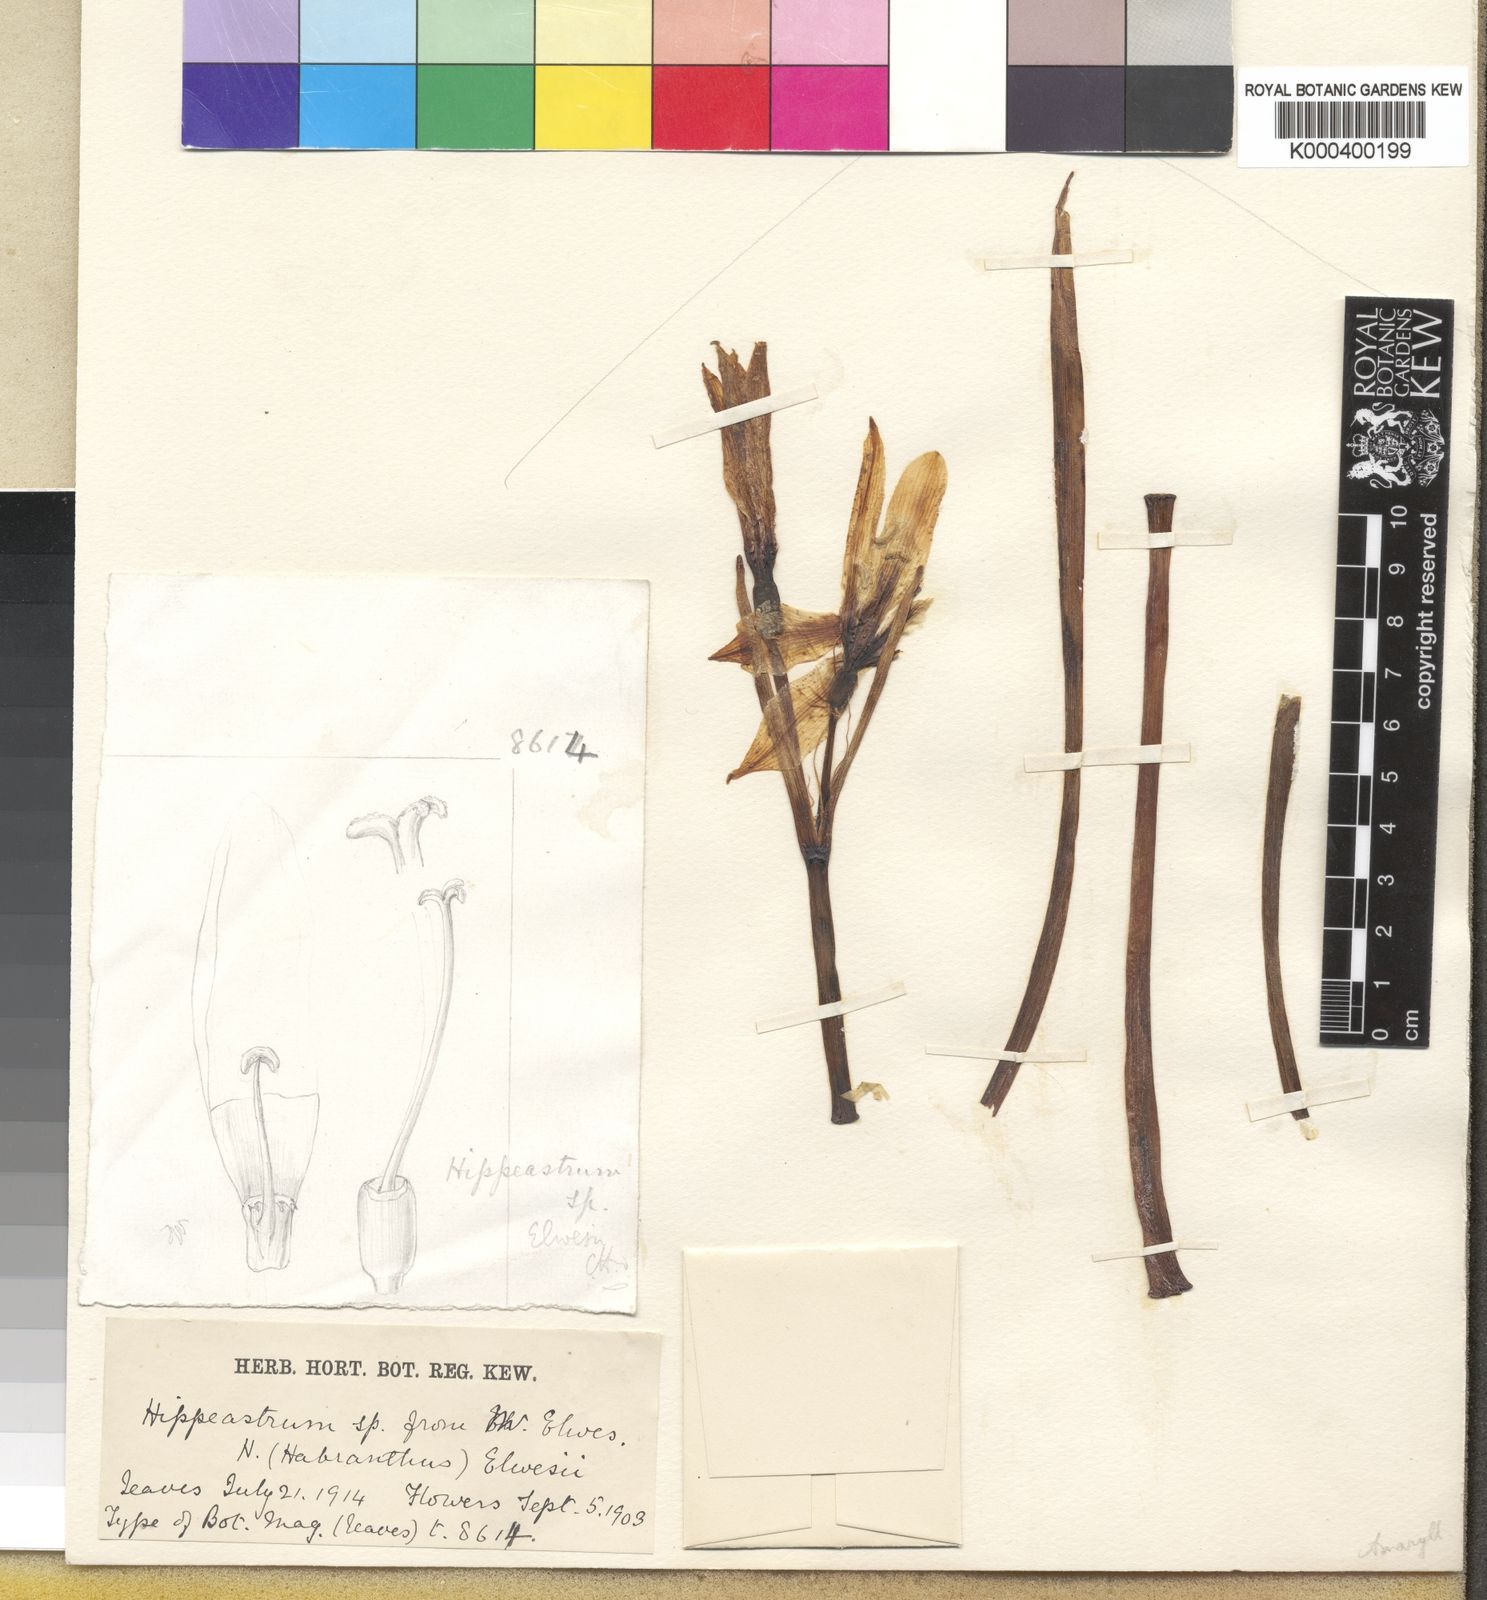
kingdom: Plantae
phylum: Tracheophyta
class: Liliopsida
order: Asparagales
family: Amaryllidaceae
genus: Zephyranthes
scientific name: Zephyranthes elwesii
